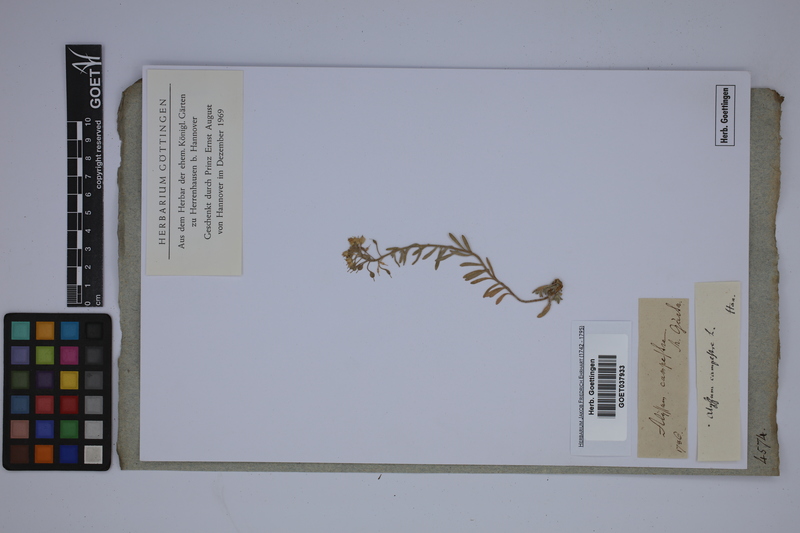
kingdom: Plantae
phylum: Tracheophyta
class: Magnoliopsida
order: Brassicales
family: Brassicaceae
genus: Alyssum
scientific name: Alyssum alyssoides
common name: Small alison
